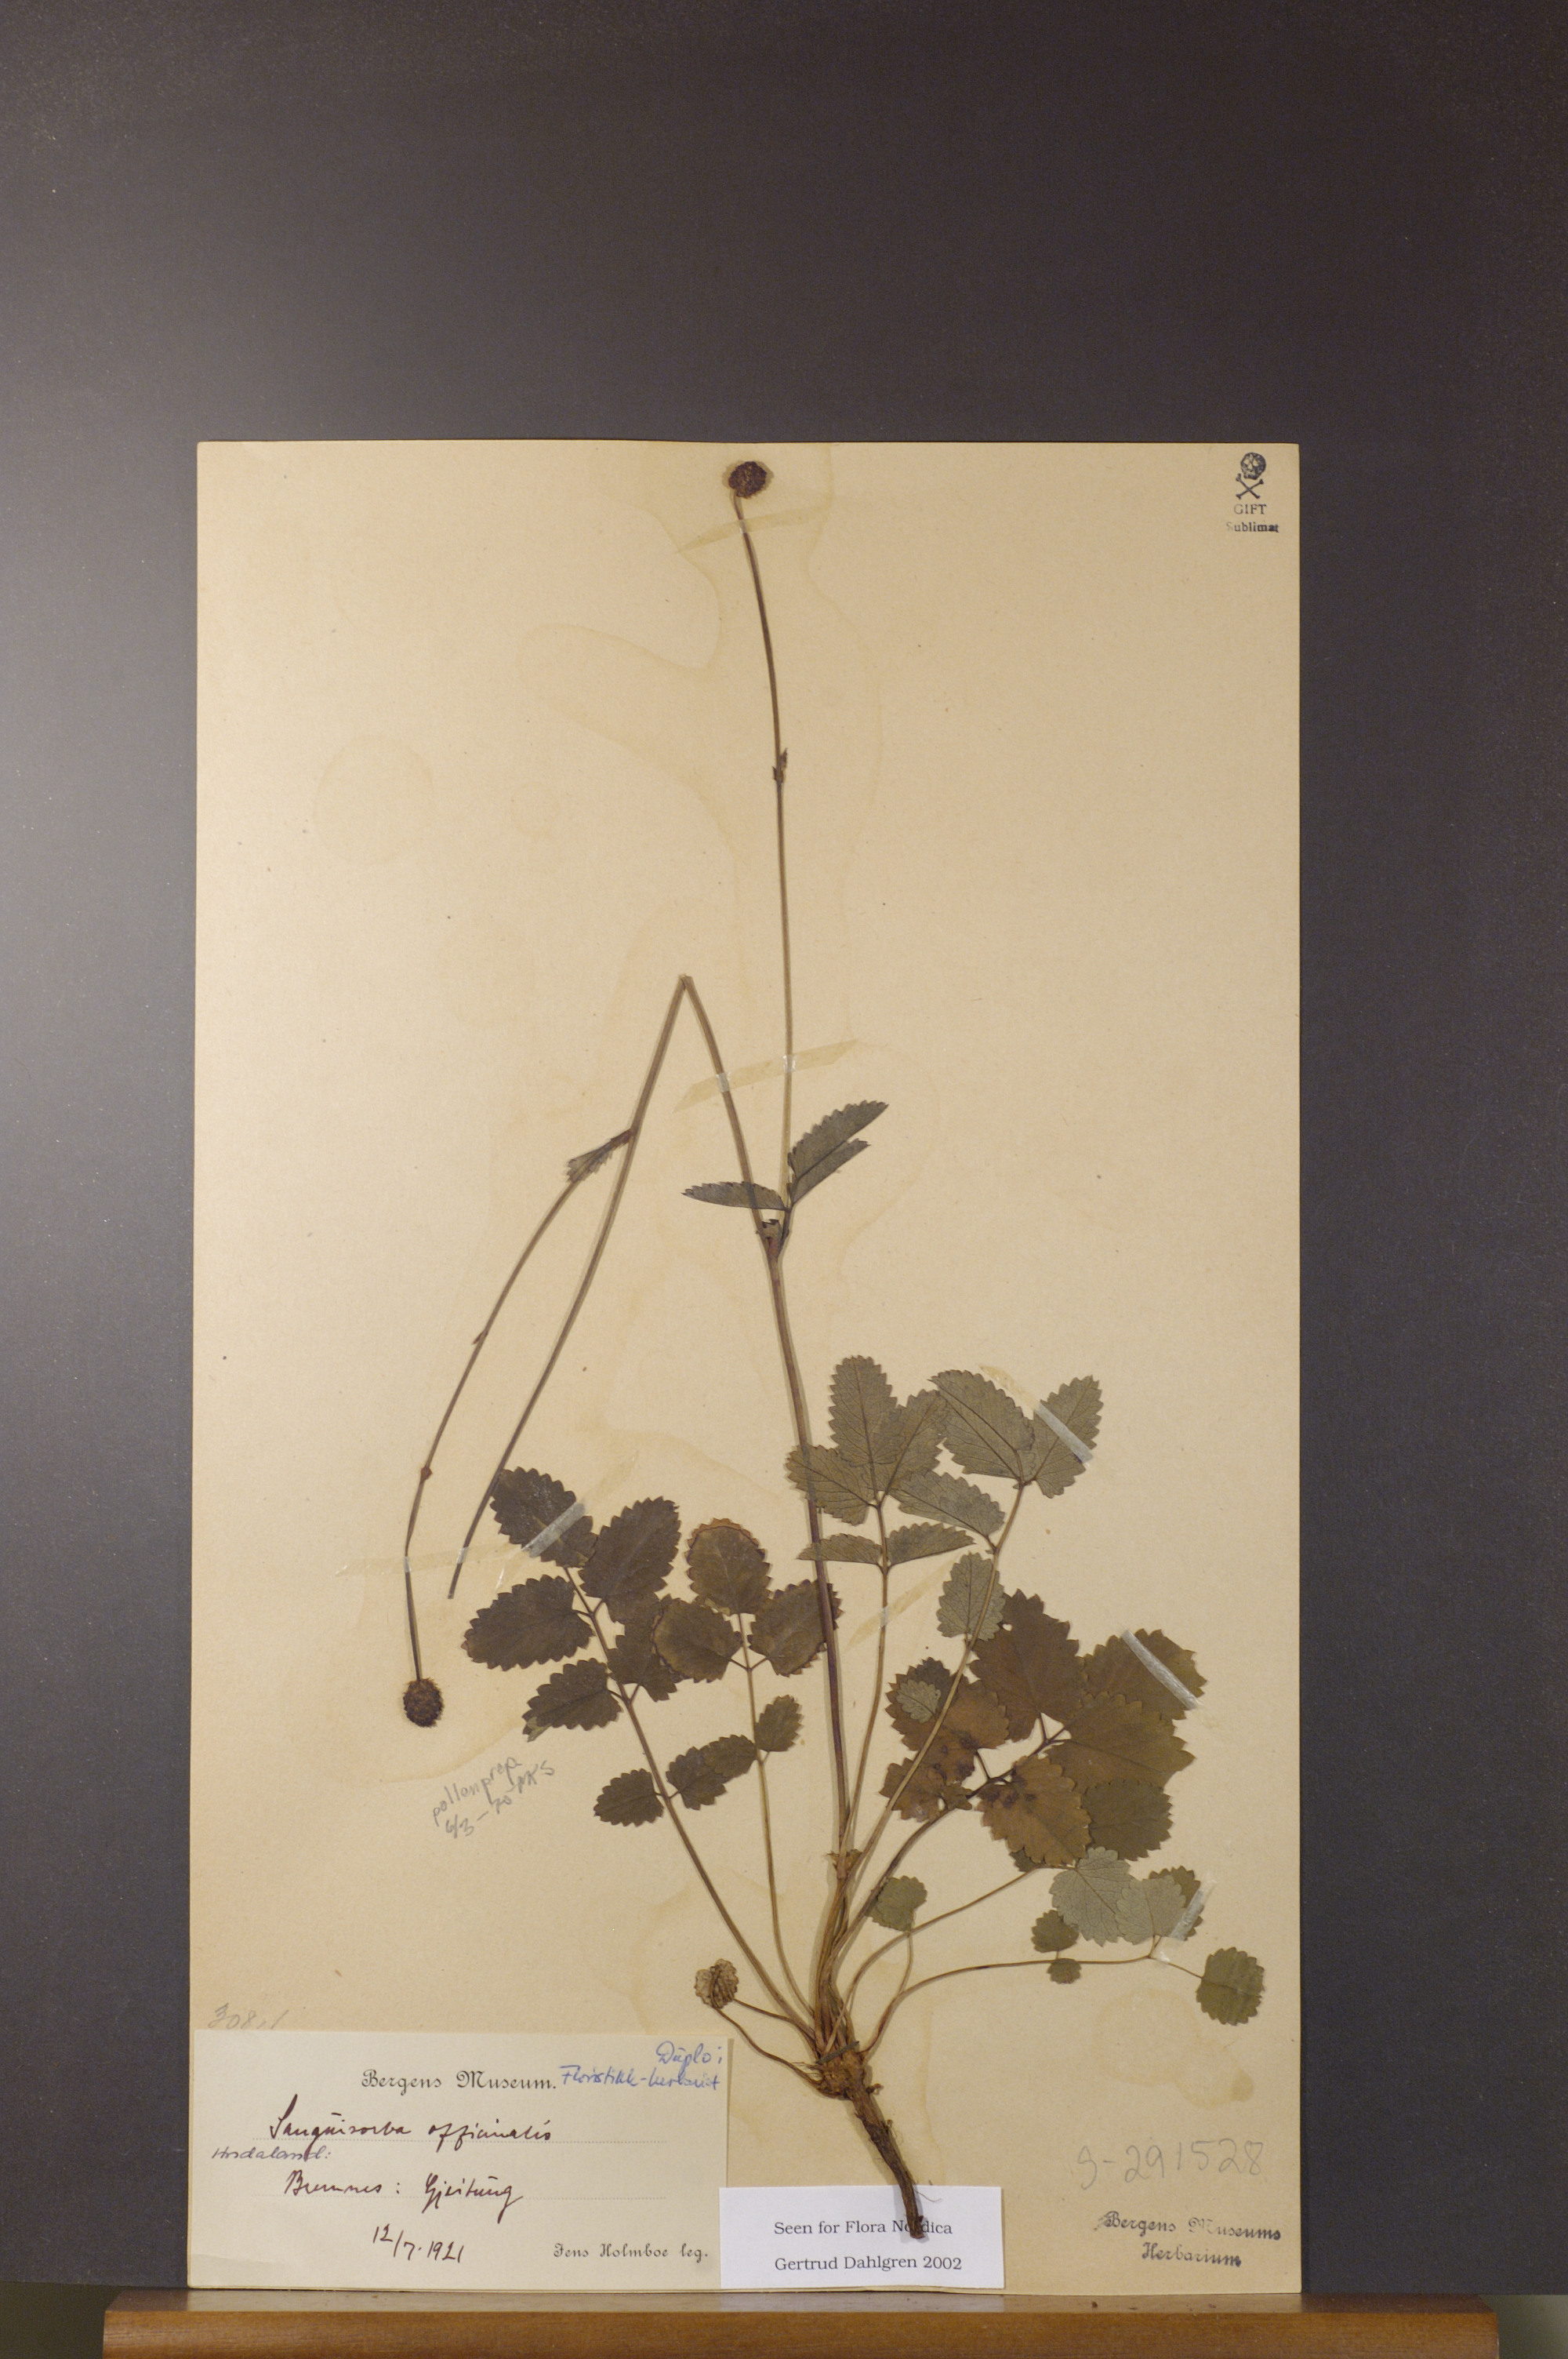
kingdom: Plantae
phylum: Tracheophyta
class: Magnoliopsida
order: Rosales
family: Rosaceae
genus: Sanguisorba
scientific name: Sanguisorba officinalis
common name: Great burnet
